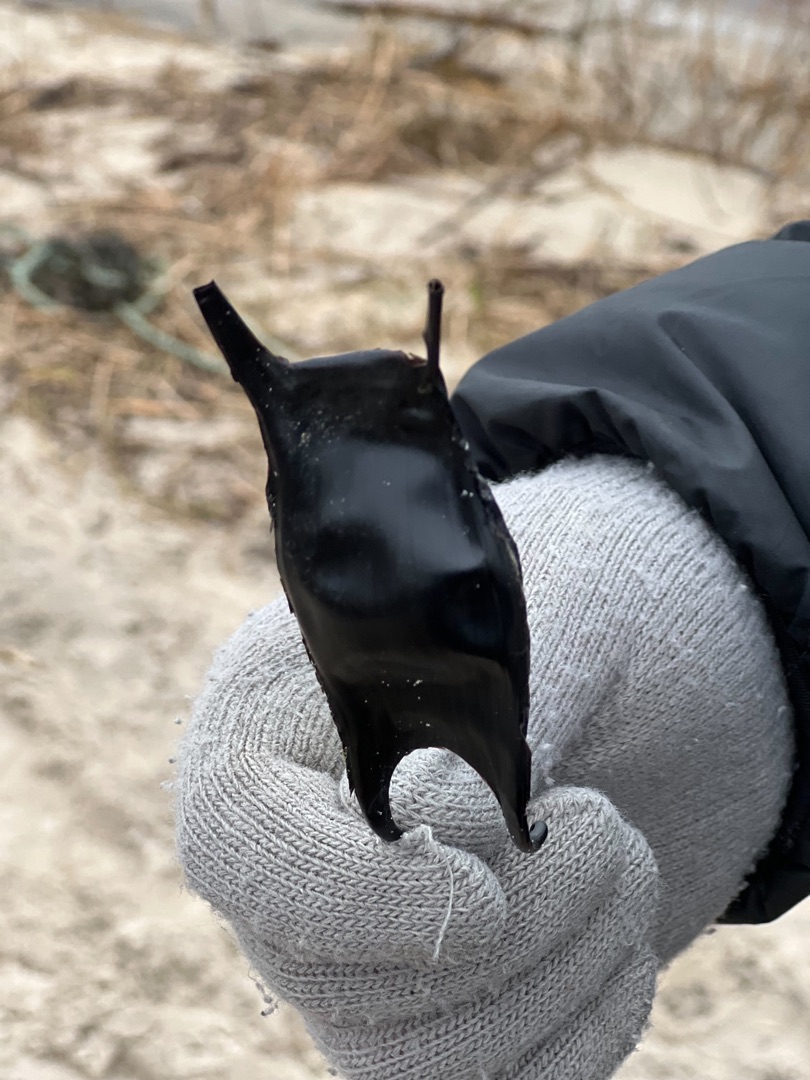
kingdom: Animalia
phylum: Chordata
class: Elasmobranchii
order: Rajiformes
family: Rajidae
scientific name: Rajidae
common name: Ægte rokker
